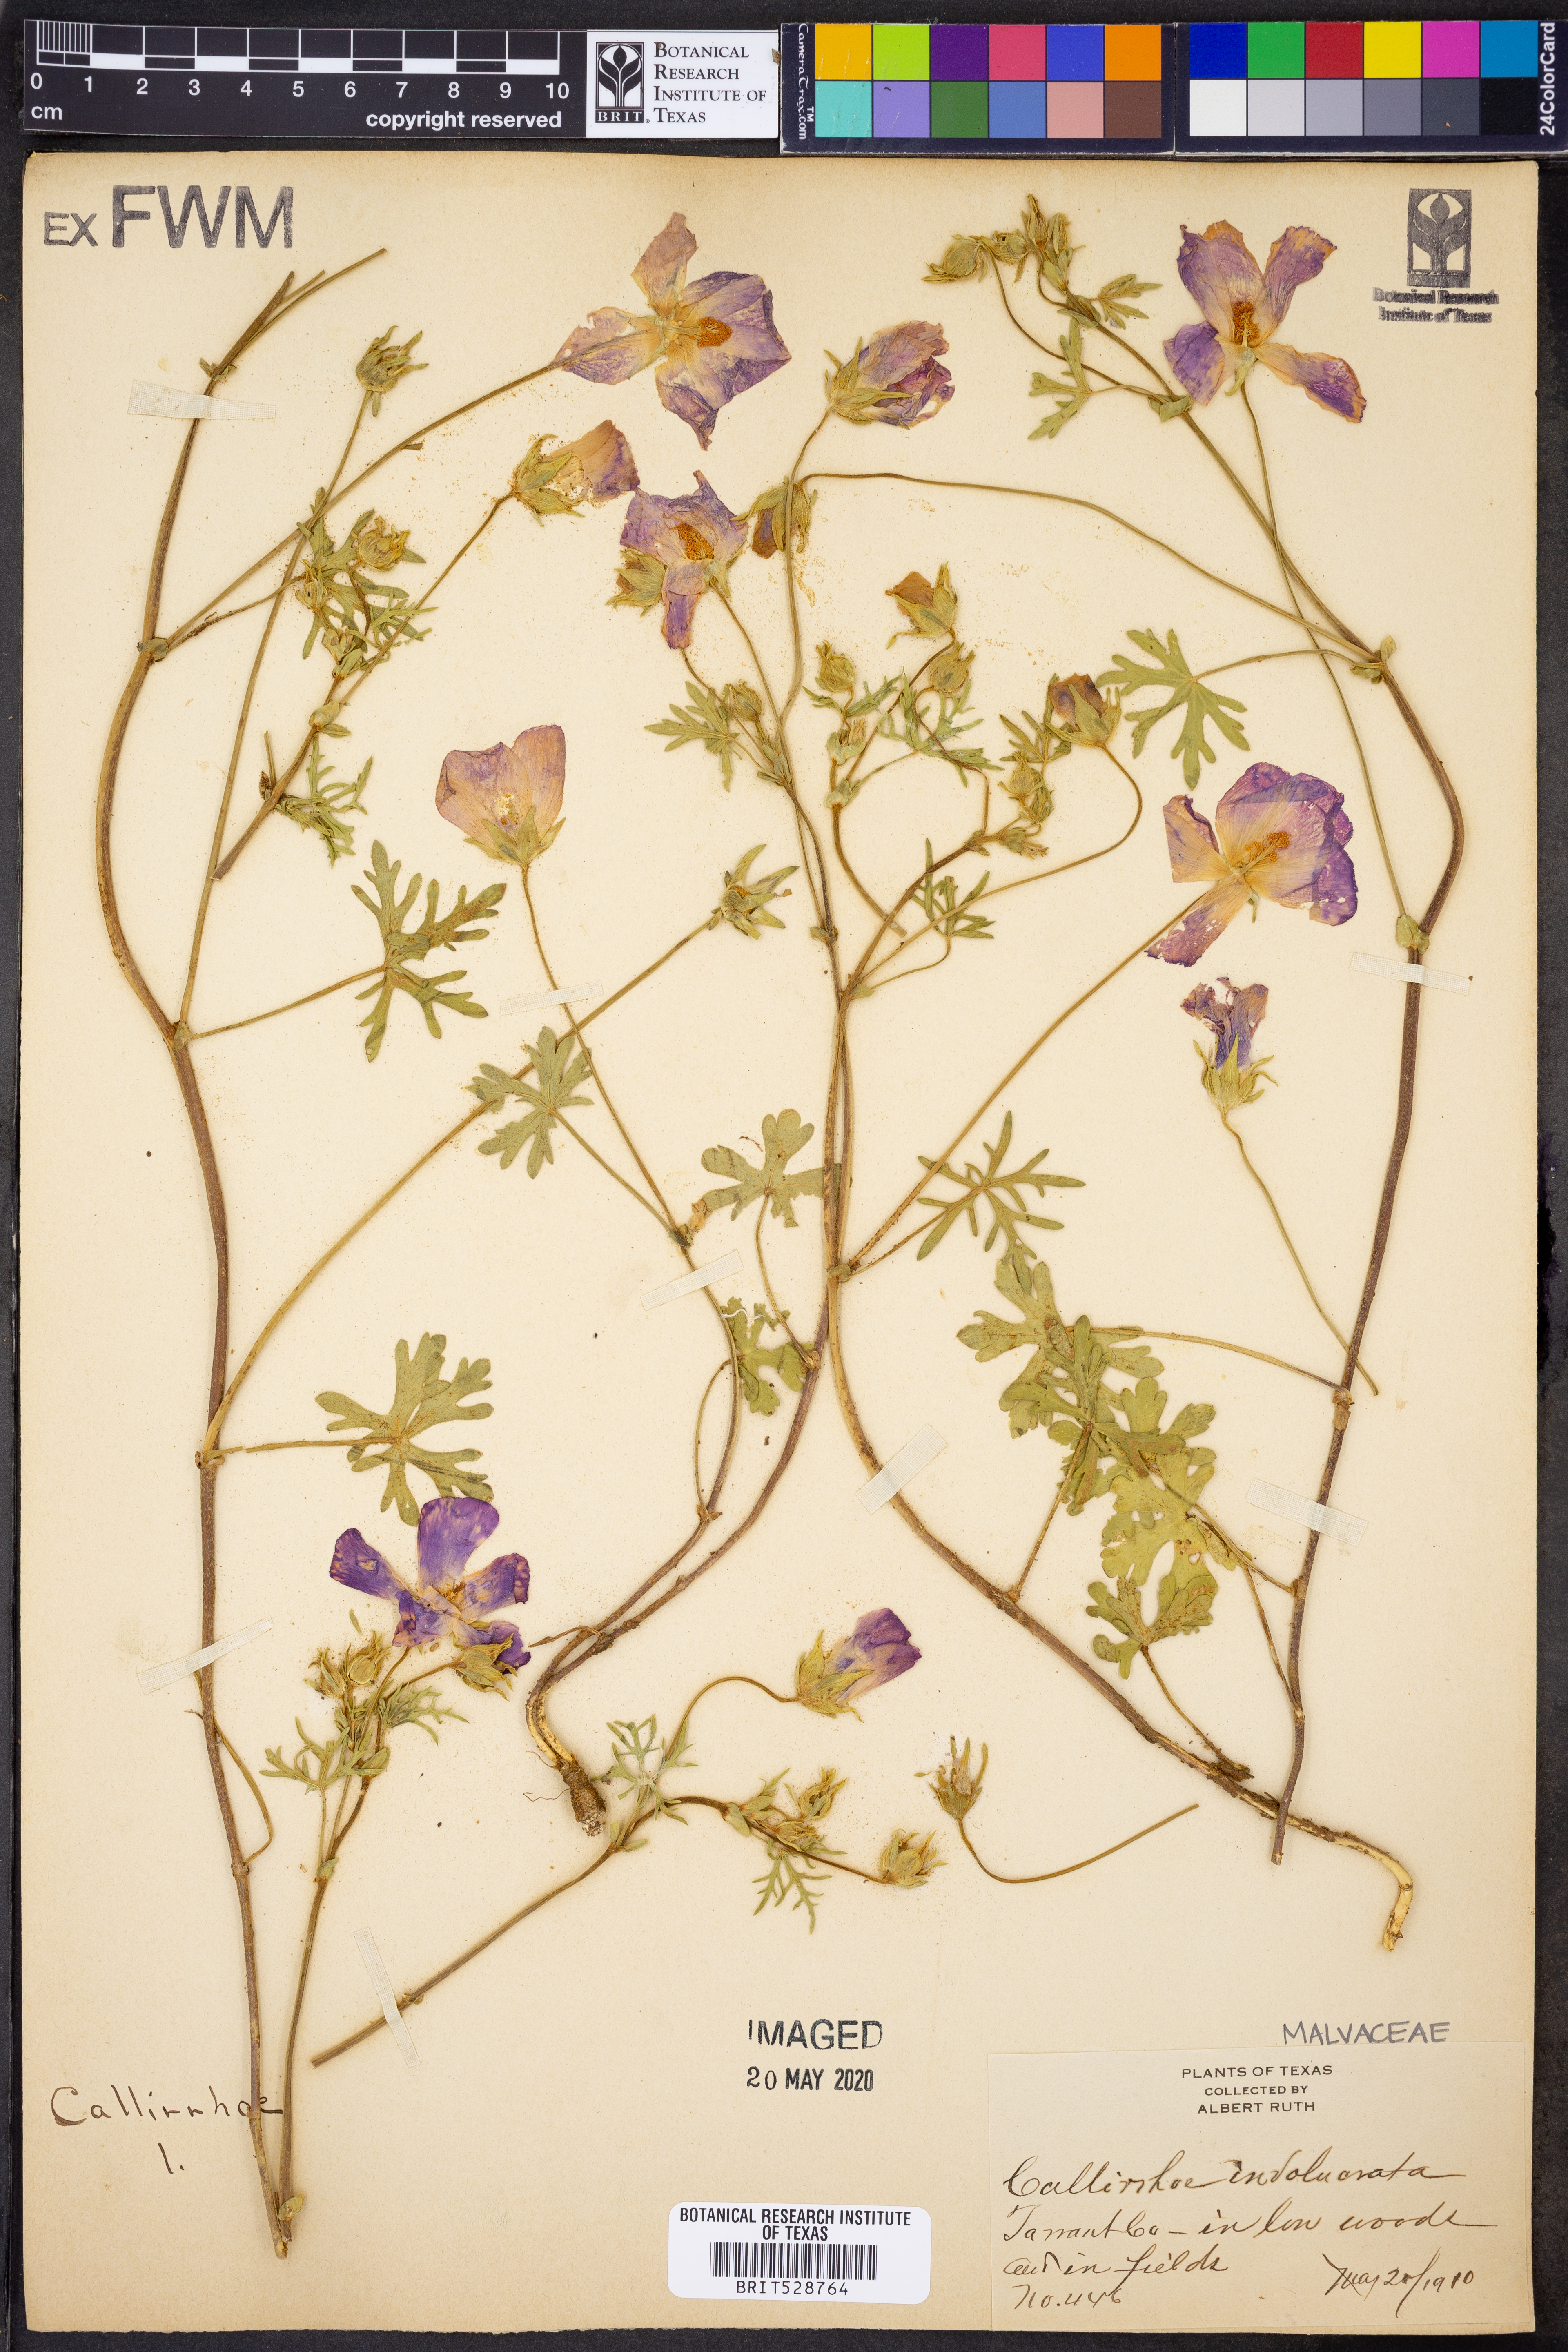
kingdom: Plantae
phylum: Tracheophyta
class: Magnoliopsida
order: Malvales
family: Malvaceae
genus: Callirhoe
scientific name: Callirhoe involucrata
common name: Purple poppy-mallow
